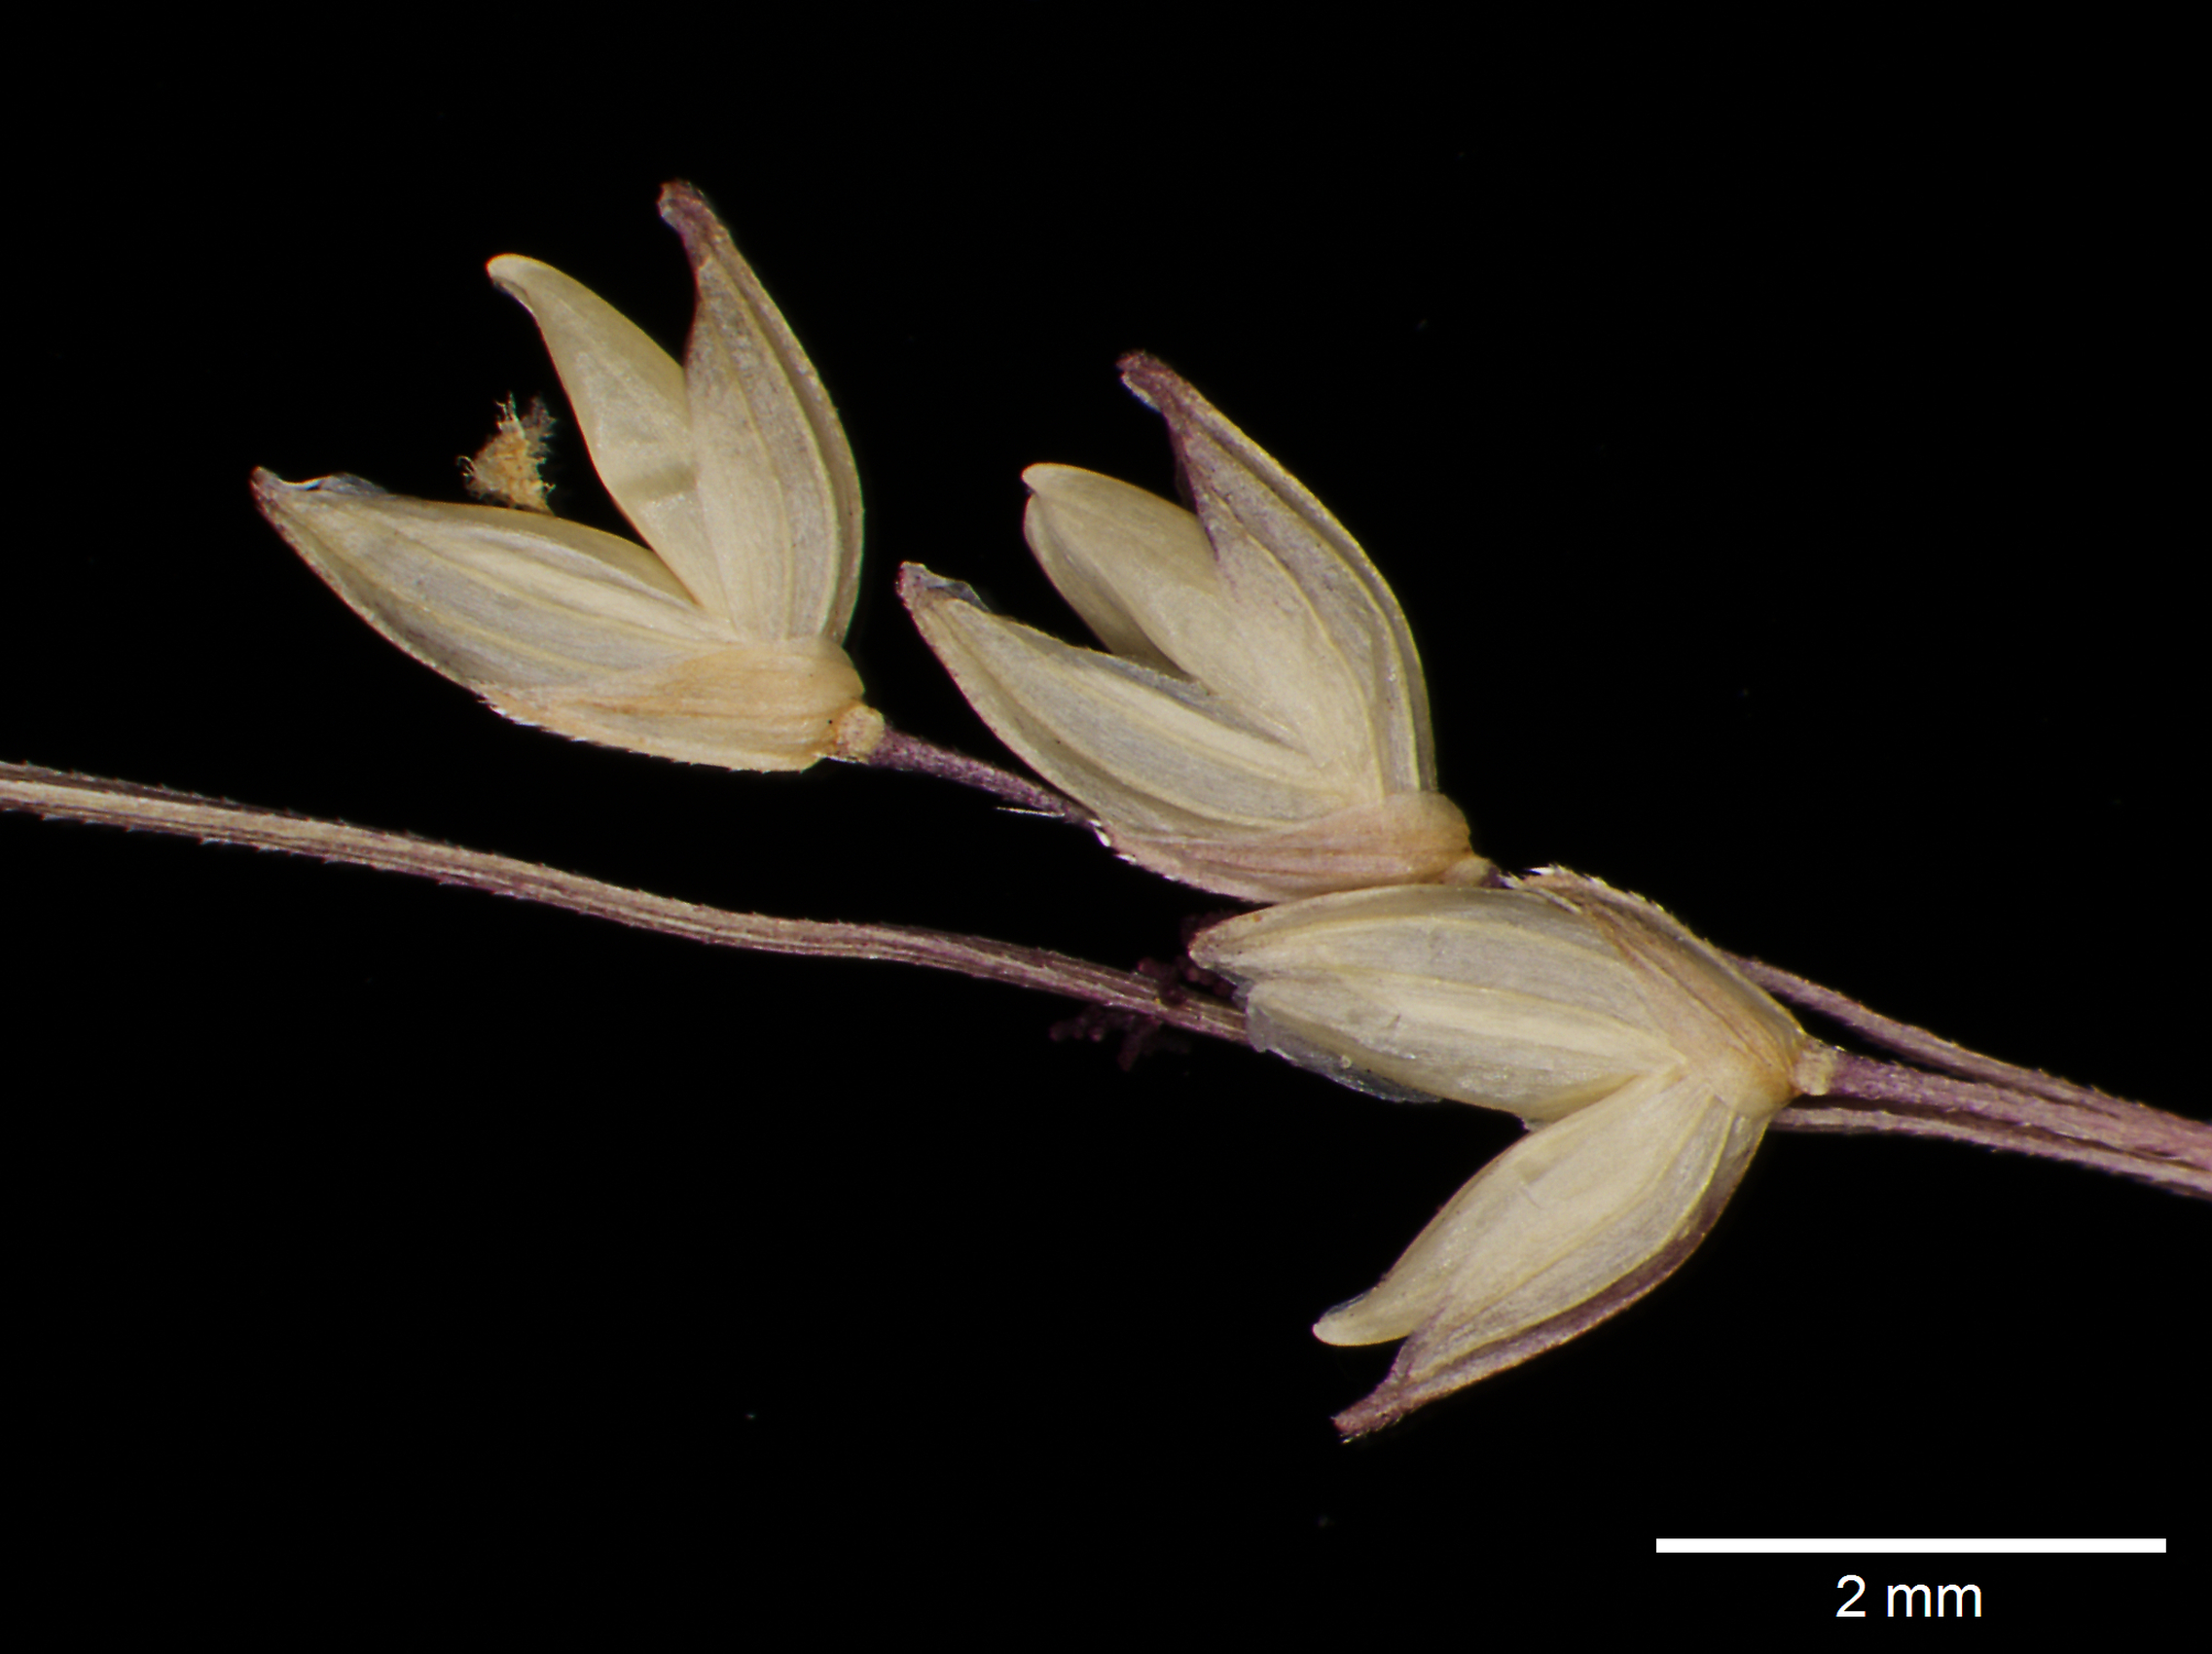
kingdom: Plantae
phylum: Tracheophyta
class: Liliopsida
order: Poales
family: Poaceae
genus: Coleataenia
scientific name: Coleataenia petersonii
